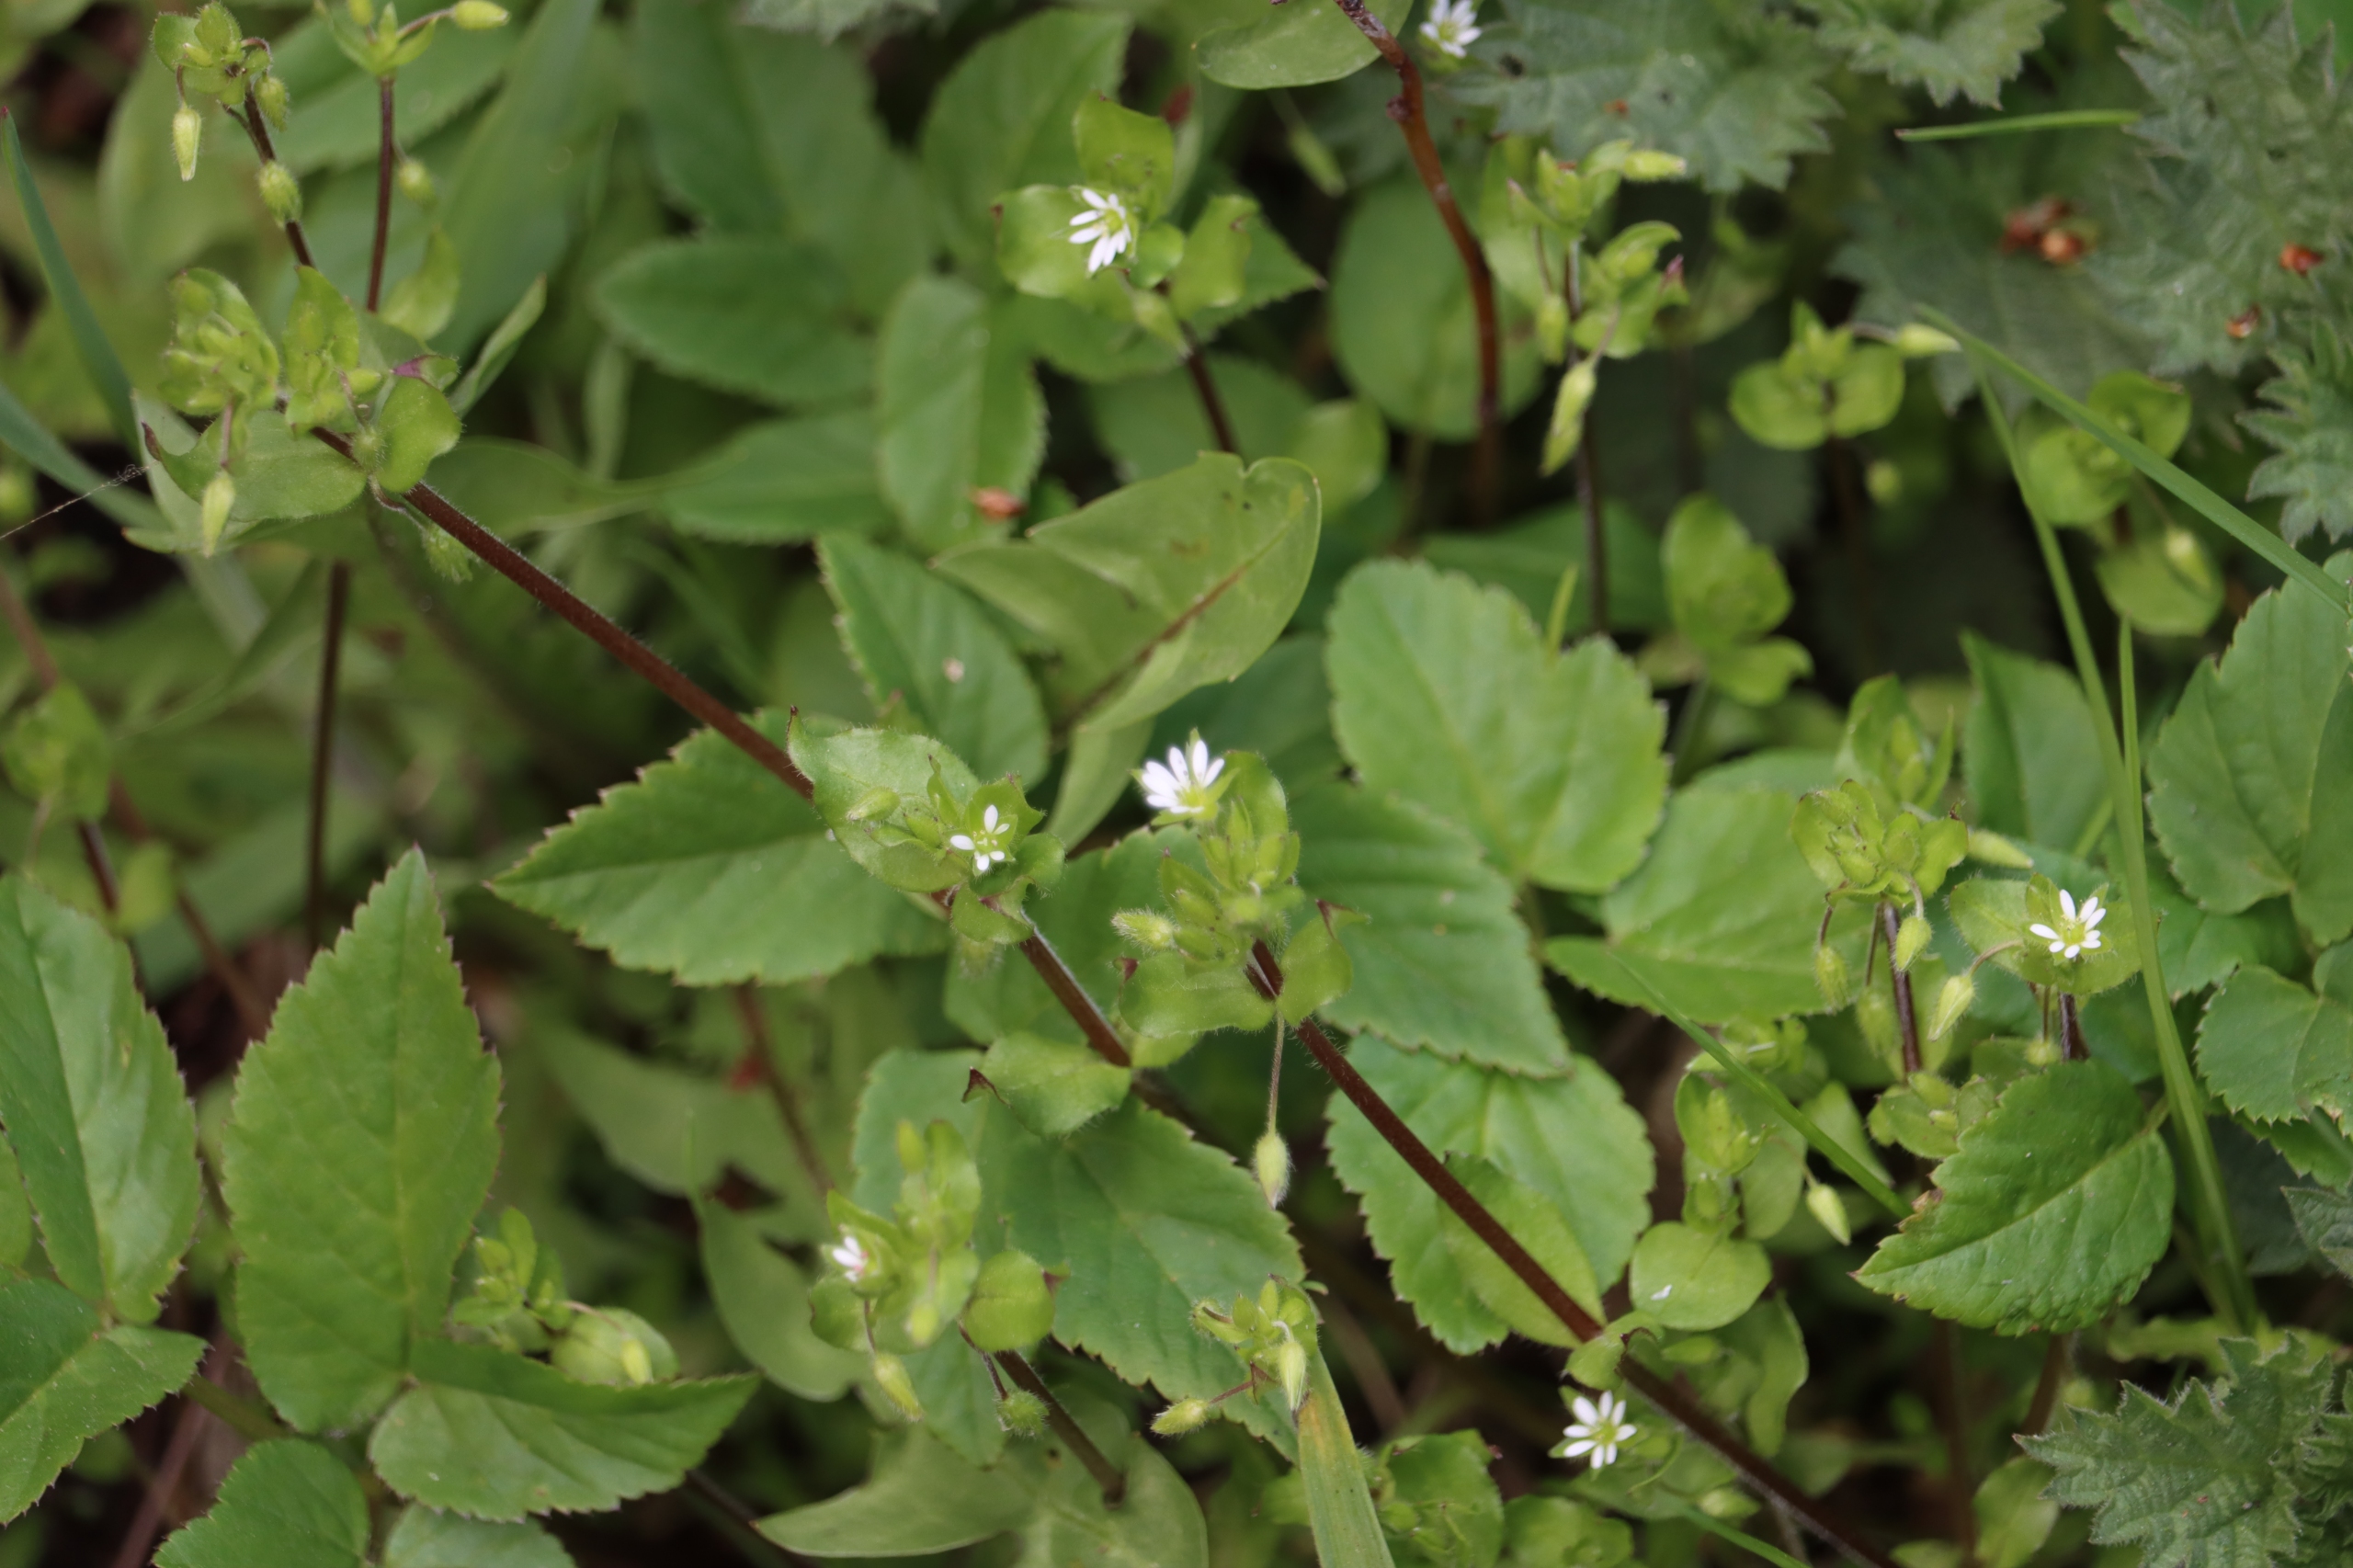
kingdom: Plantae
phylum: Tracheophyta
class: Magnoliopsida
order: Caryophyllales
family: Caryophyllaceae
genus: Stellaria
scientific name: Stellaria media
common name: Almindelig fuglegræs
